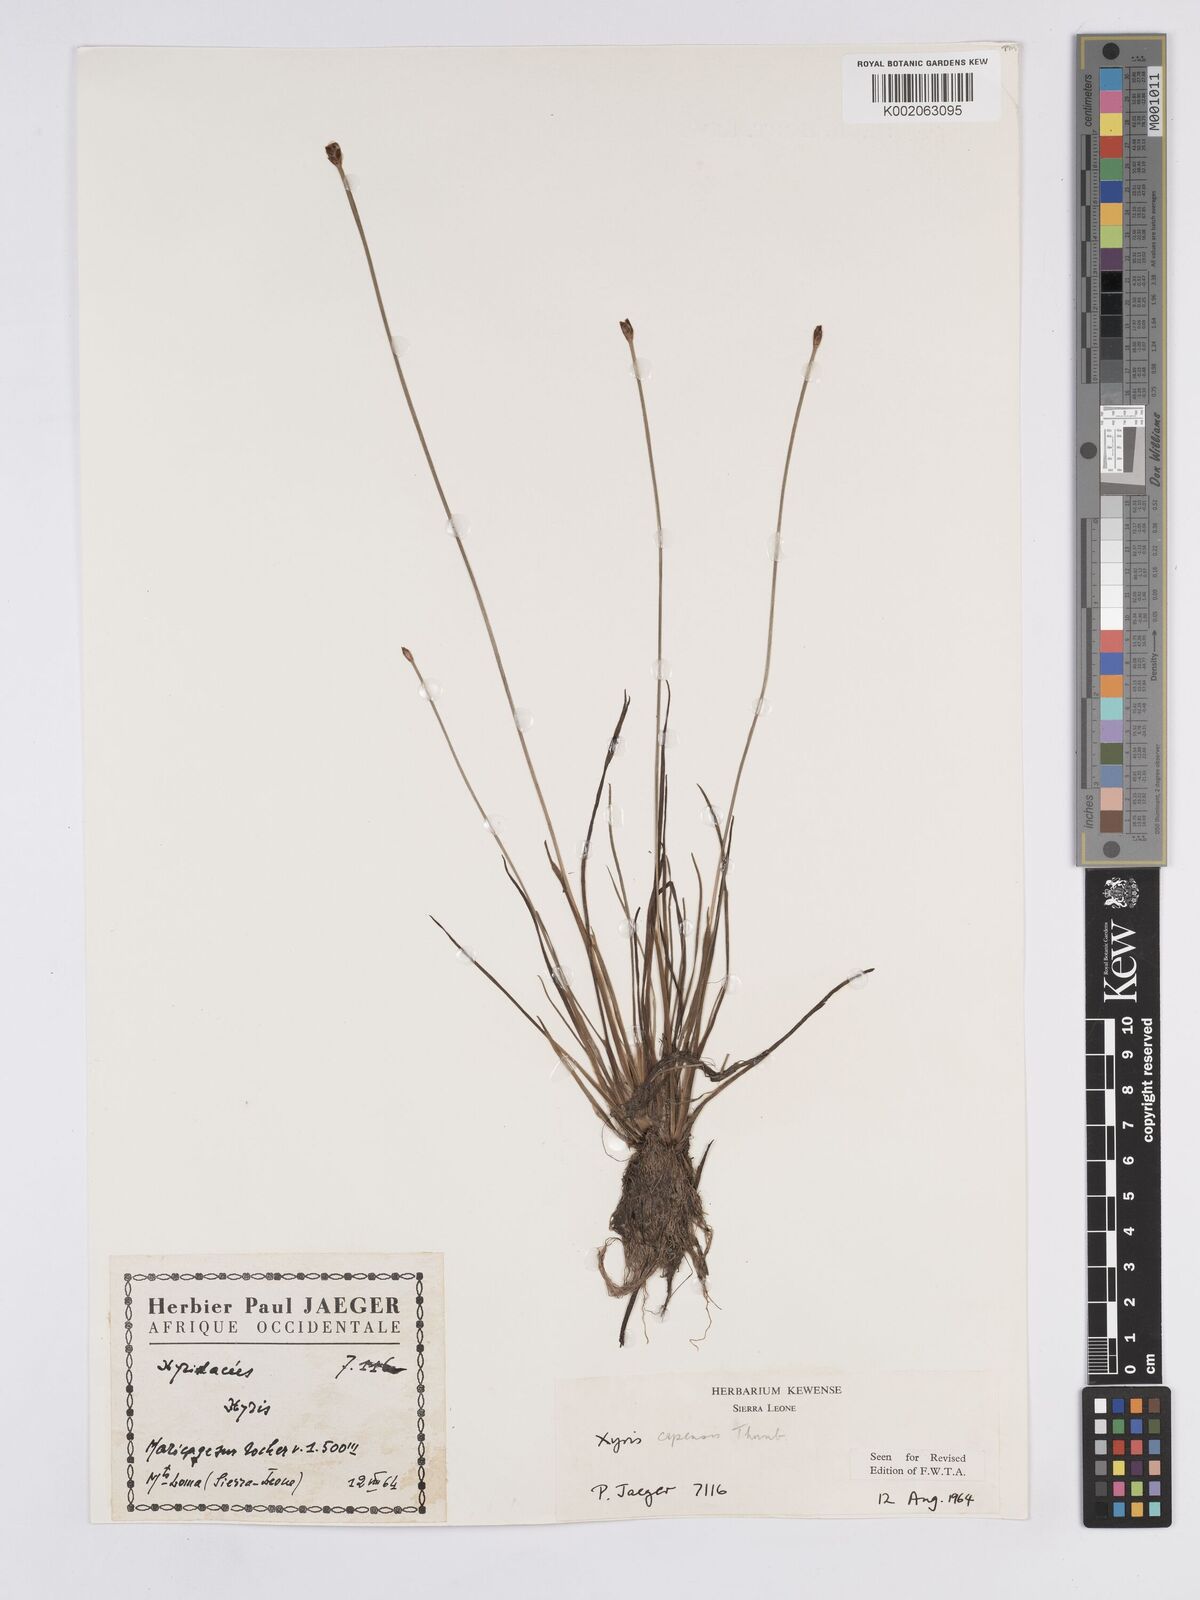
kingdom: Plantae
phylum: Tracheophyta
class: Liliopsida
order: Poales
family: Xyridaceae
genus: Xyris
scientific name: Xyris capensis
